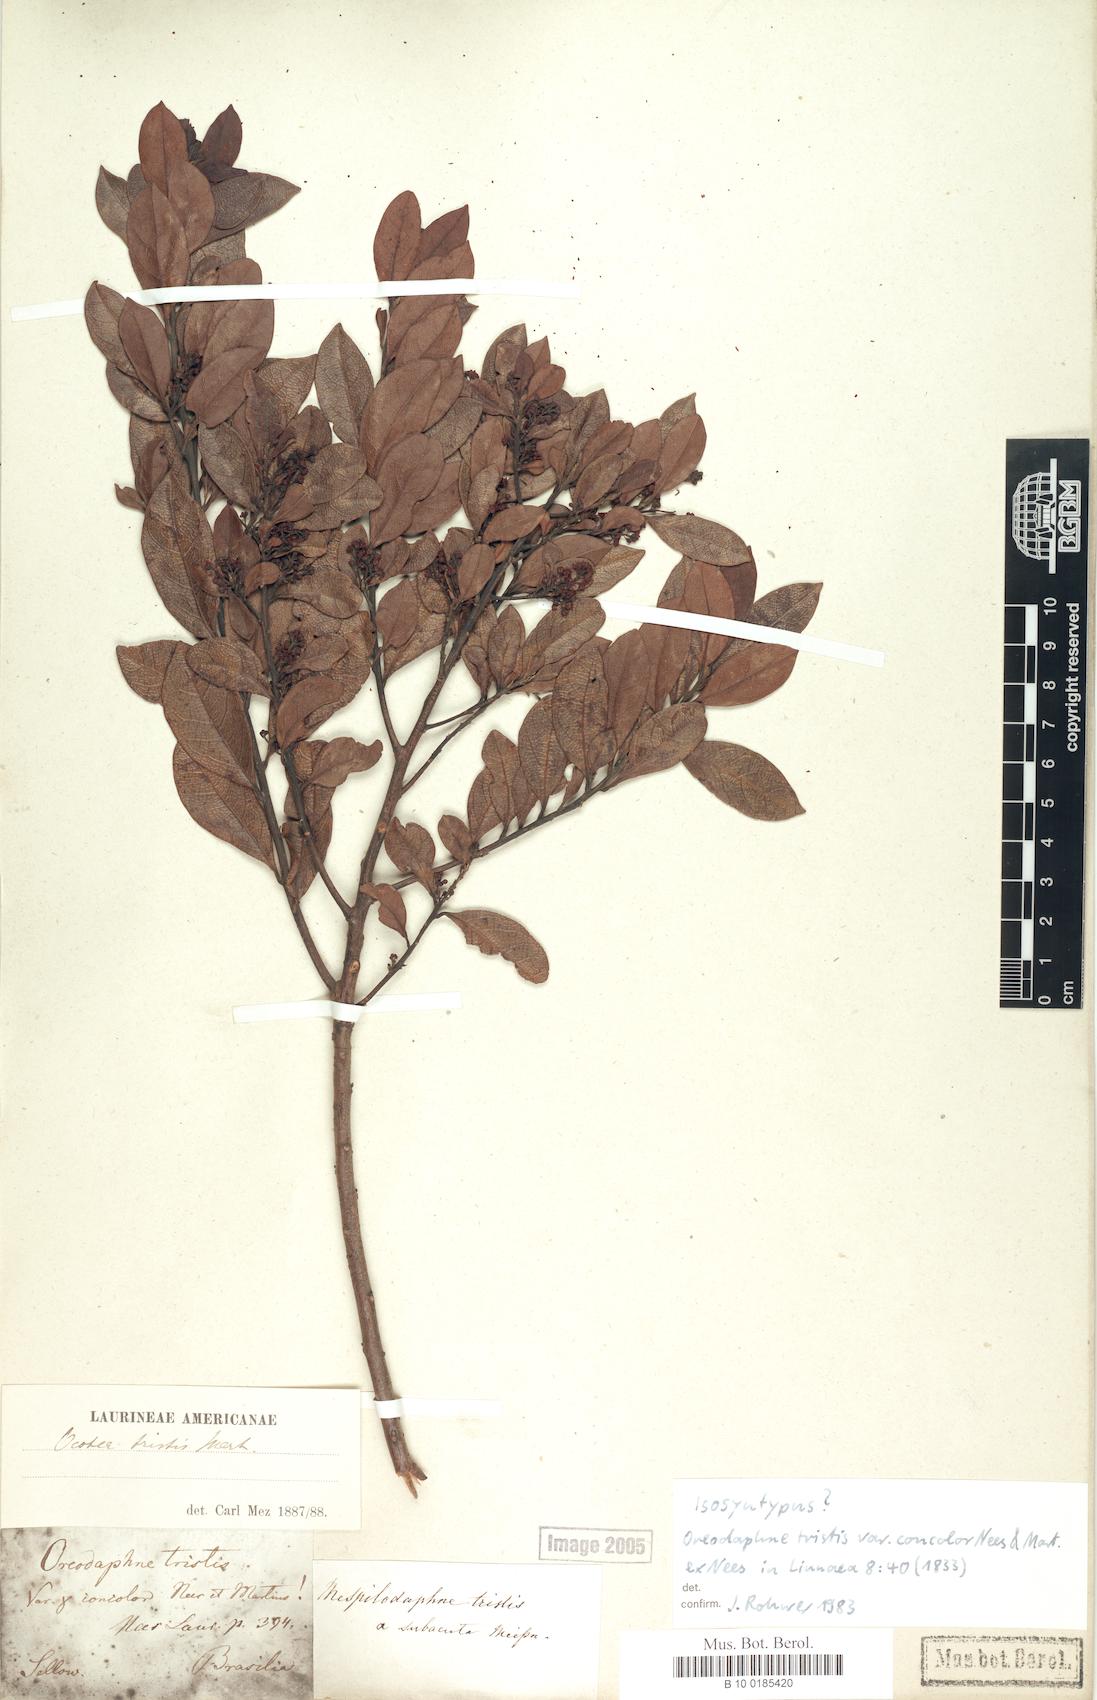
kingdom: Plantae
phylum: Tracheophyta
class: Magnoliopsida
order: Laurales
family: Lauraceae
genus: Mespilodaphne
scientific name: Mespilodaphne tristis
